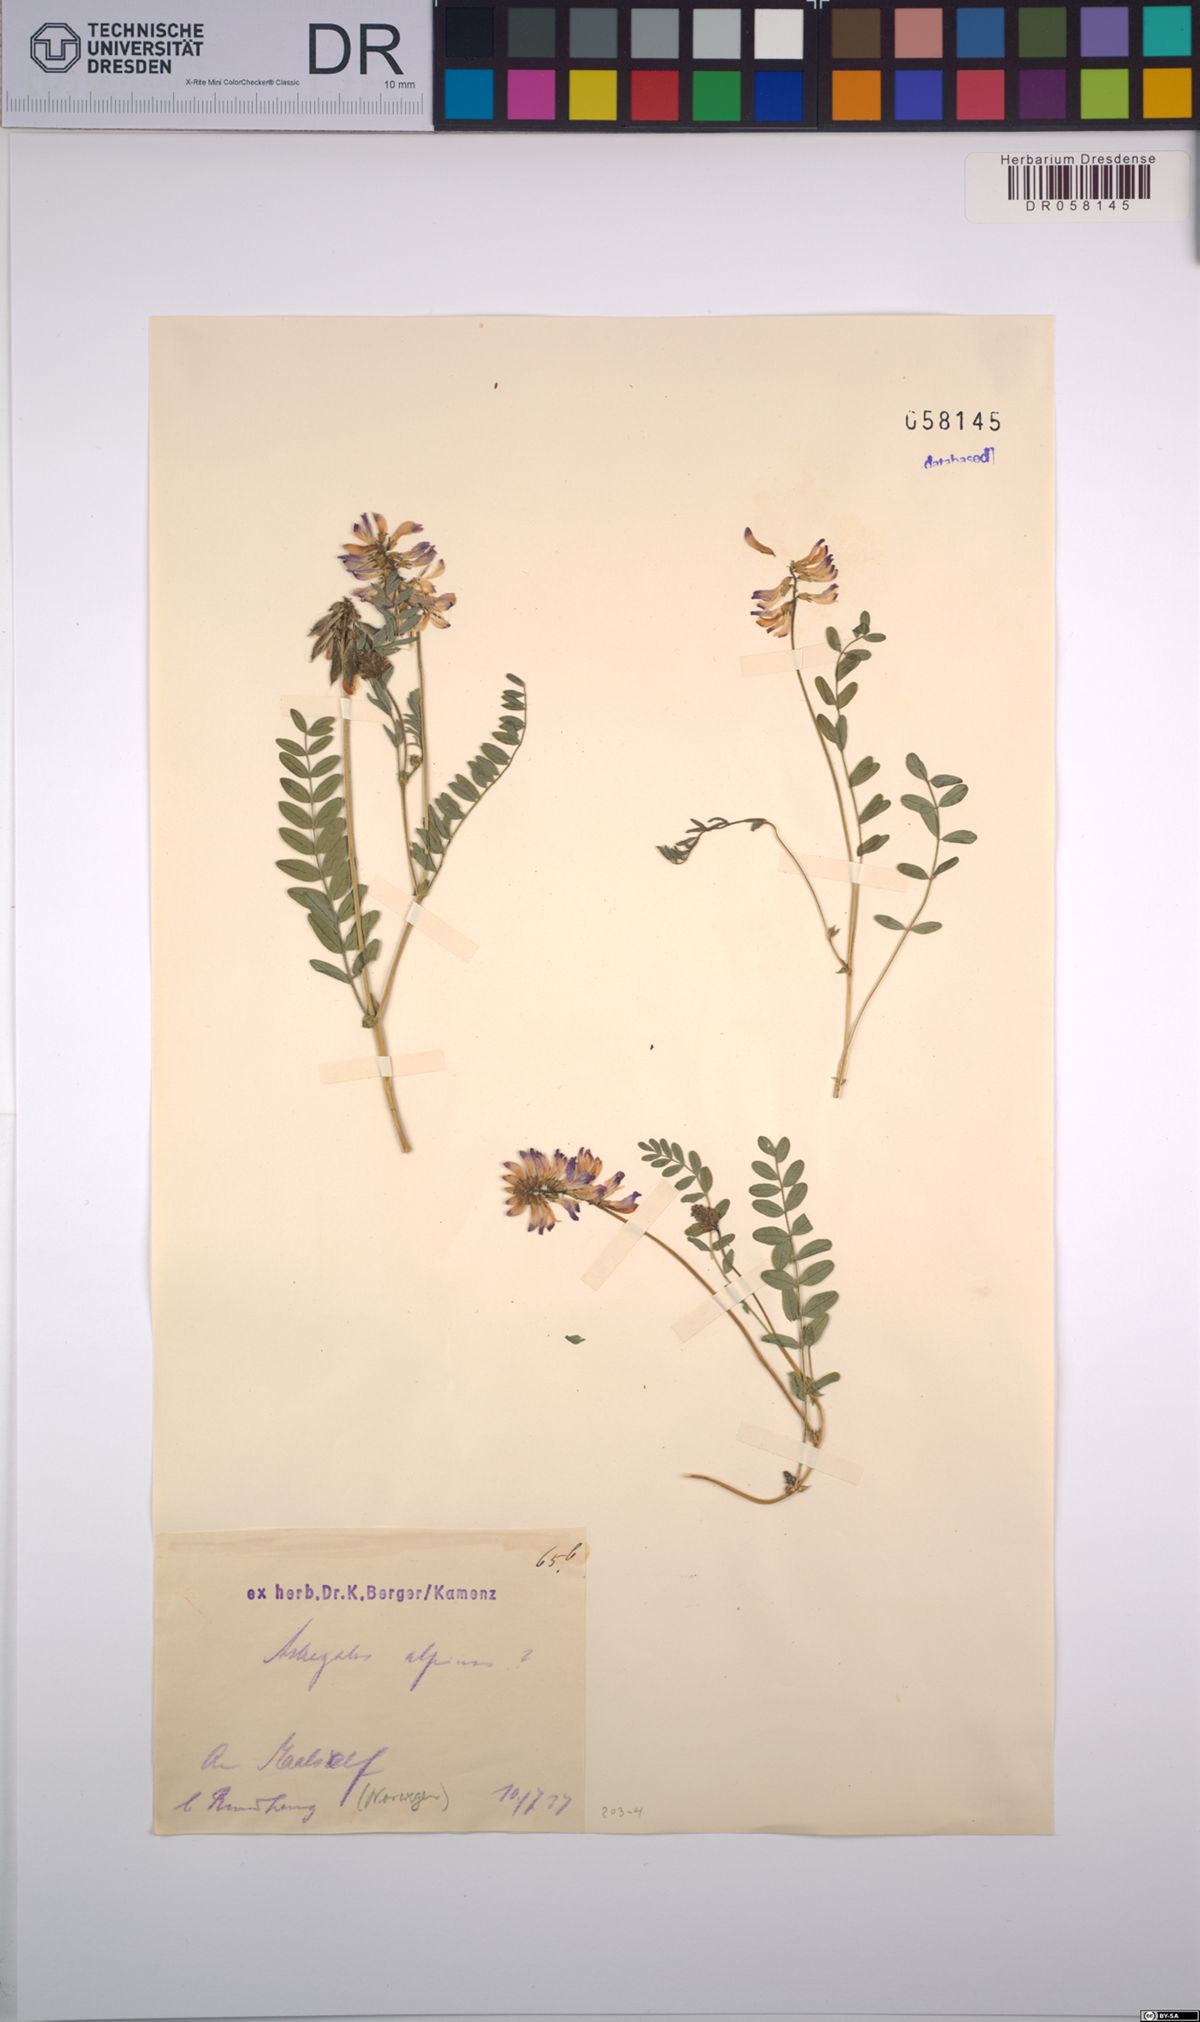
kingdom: Plantae
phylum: Tracheophyta
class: Magnoliopsida
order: Fabales
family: Fabaceae
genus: Astragalus
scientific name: Astragalus alpinus
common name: Alpine milk-vetch
